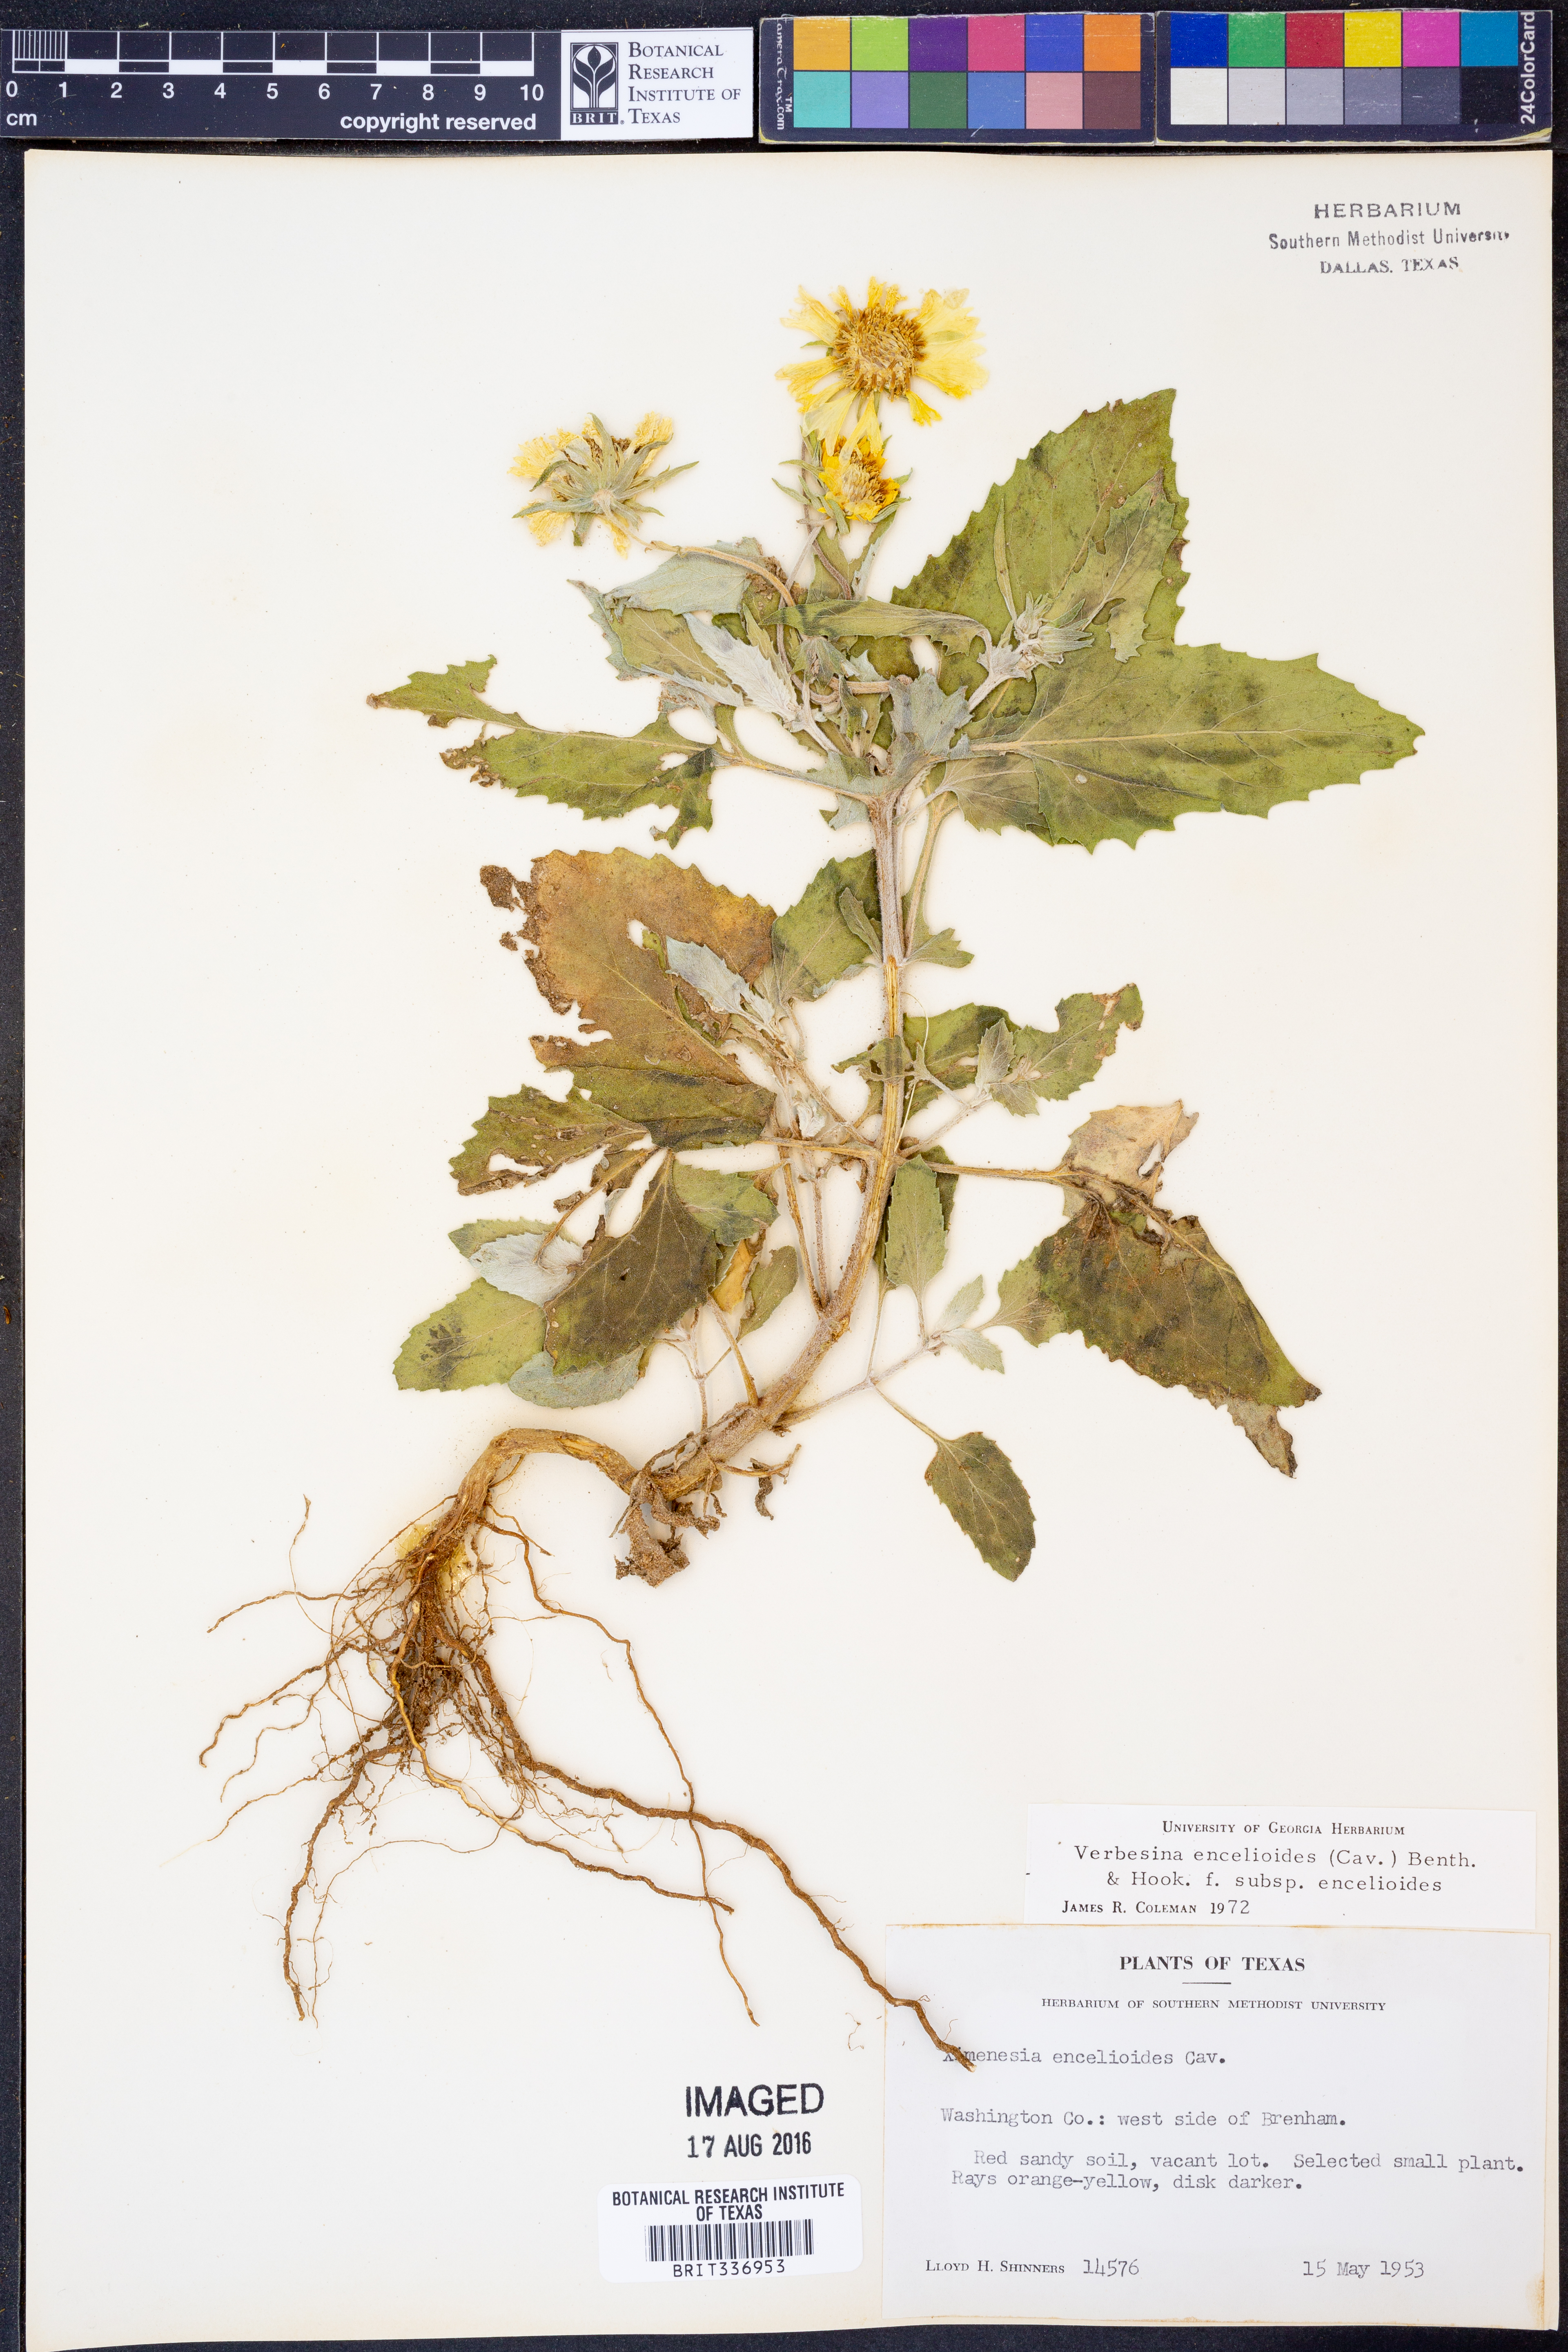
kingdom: Plantae
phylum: Tracheophyta
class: Magnoliopsida
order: Asterales
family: Asteraceae
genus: Verbesina
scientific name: Verbesina encelioides
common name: Golden crownbeard
